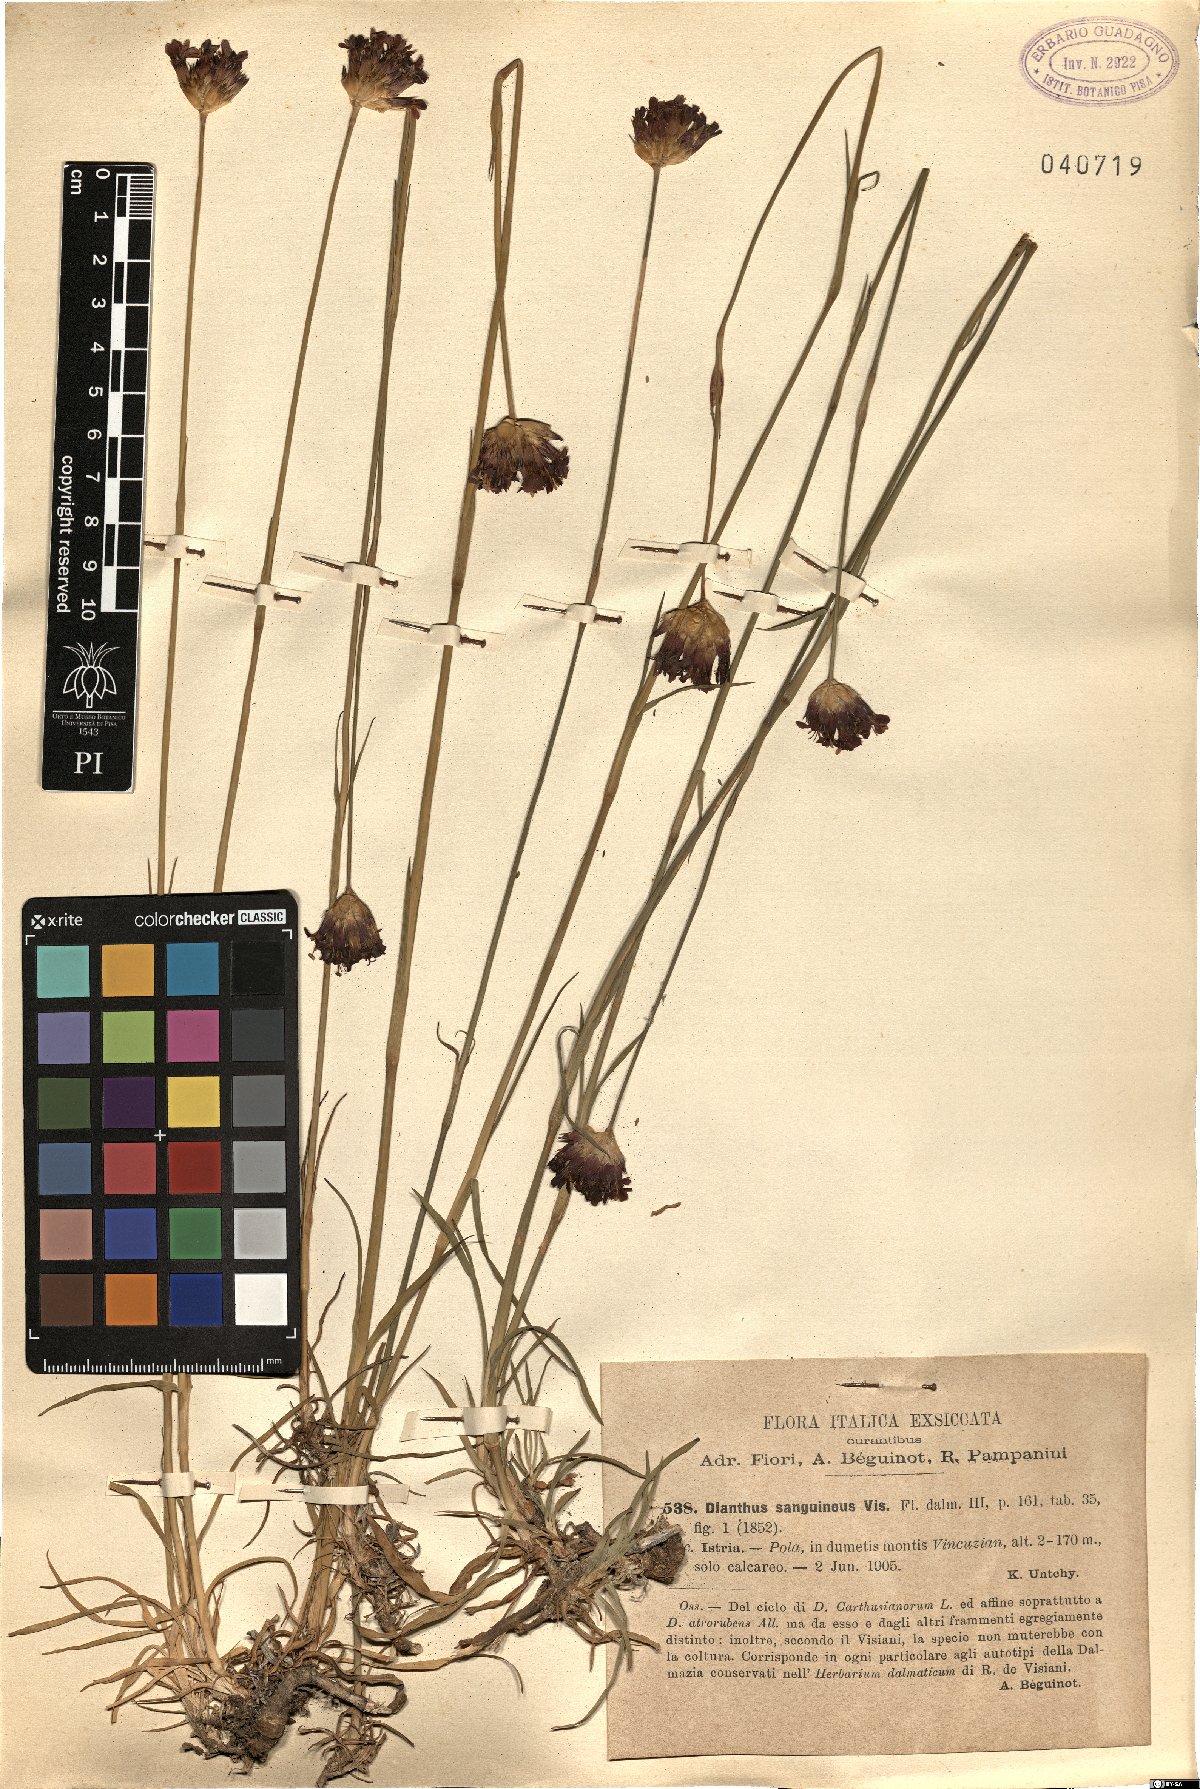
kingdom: Plantae
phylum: Tracheophyta
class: Magnoliopsida
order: Caryophyllales
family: Caryophyllaceae
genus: Dianthus
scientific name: Dianthus carthusianorum
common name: Carthusian pink
